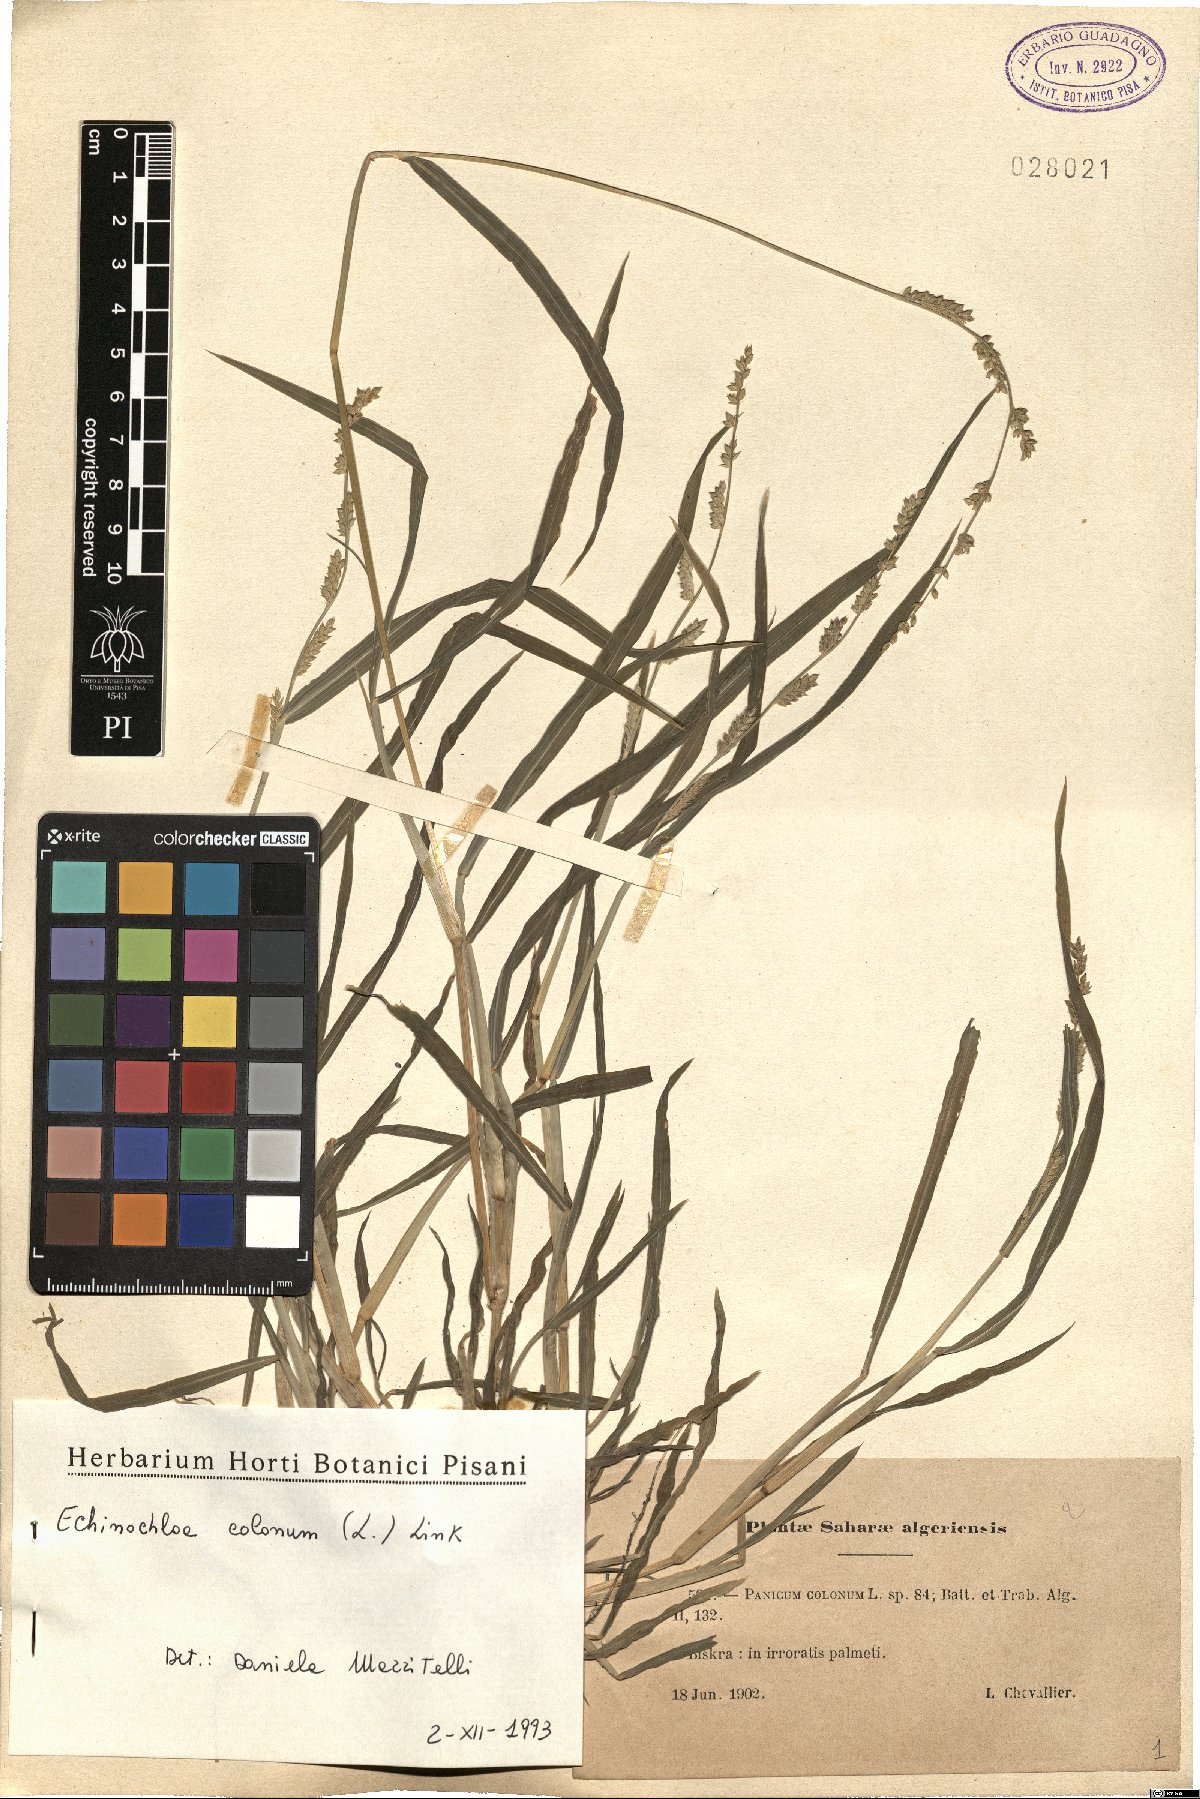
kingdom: Plantae
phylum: Tracheophyta
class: Liliopsida
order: Poales
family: Poaceae
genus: Echinochloa
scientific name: Echinochloa colonum
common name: Jungle rice
